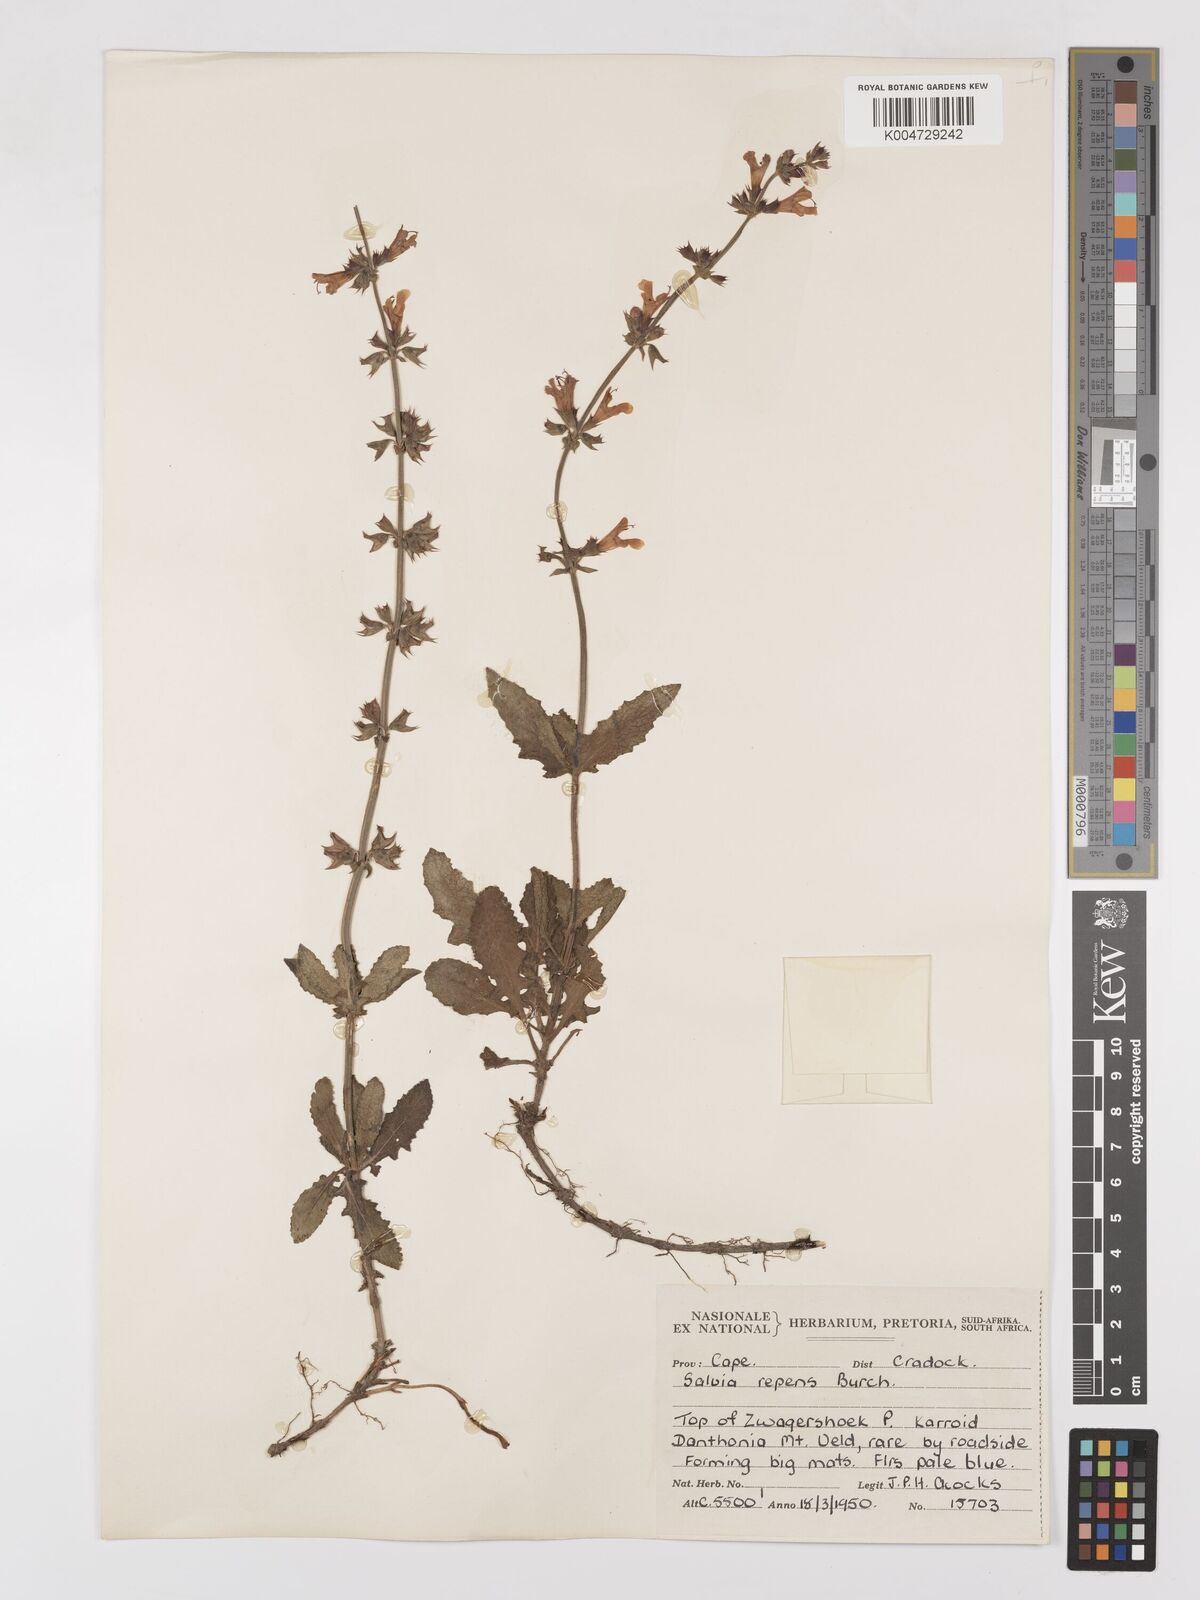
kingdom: Plantae
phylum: Tracheophyta
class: Magnoliopsida
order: Lamiales
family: Lamiaceae
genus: Salvia
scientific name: Salvia repens
